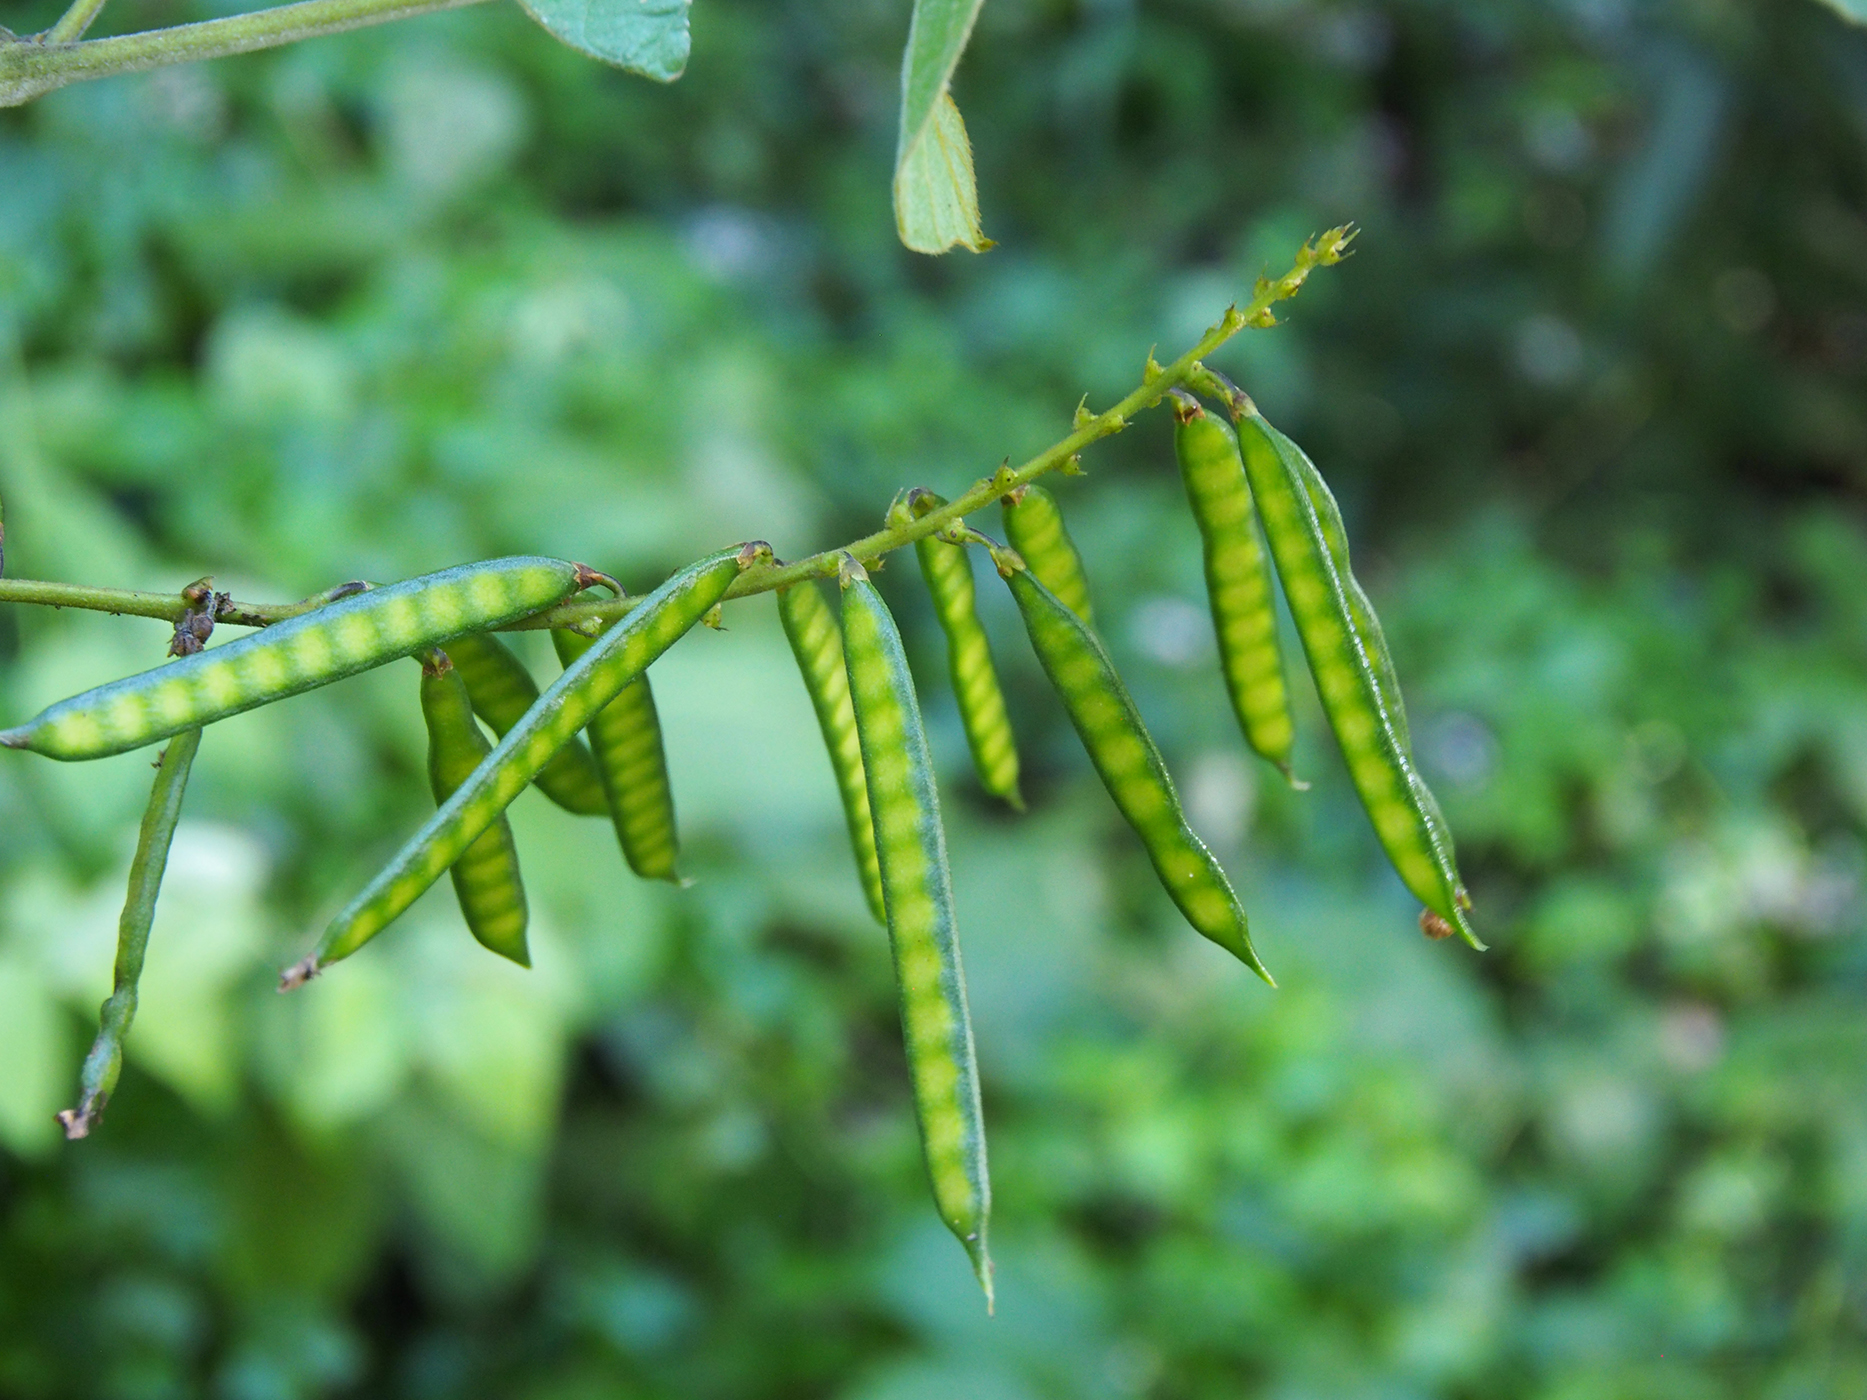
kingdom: Plantae
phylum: Tracheophyta
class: Magnoliopsida
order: Fabales
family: Fabaceae
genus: Teyleria
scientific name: Teyleria stricta
